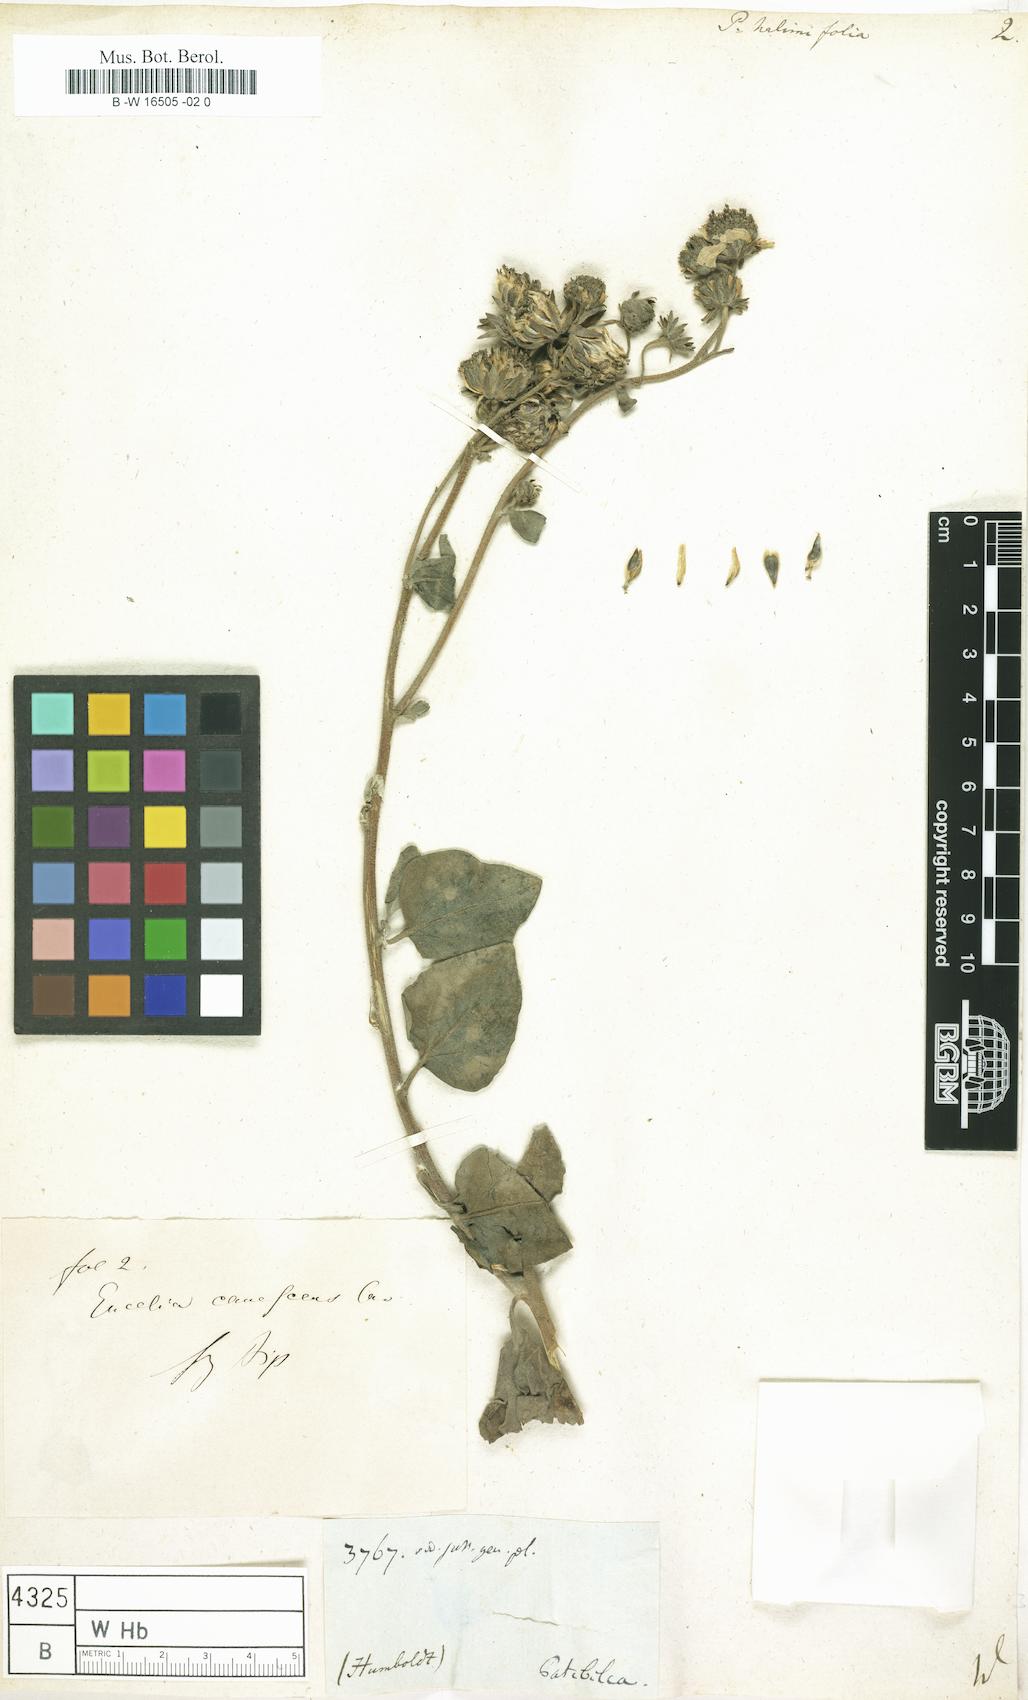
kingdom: Plantae
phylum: Tracheophyta
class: Magnoliopsida
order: Asterales
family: Asteraceae
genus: Encelia
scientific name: Encelia canescens
